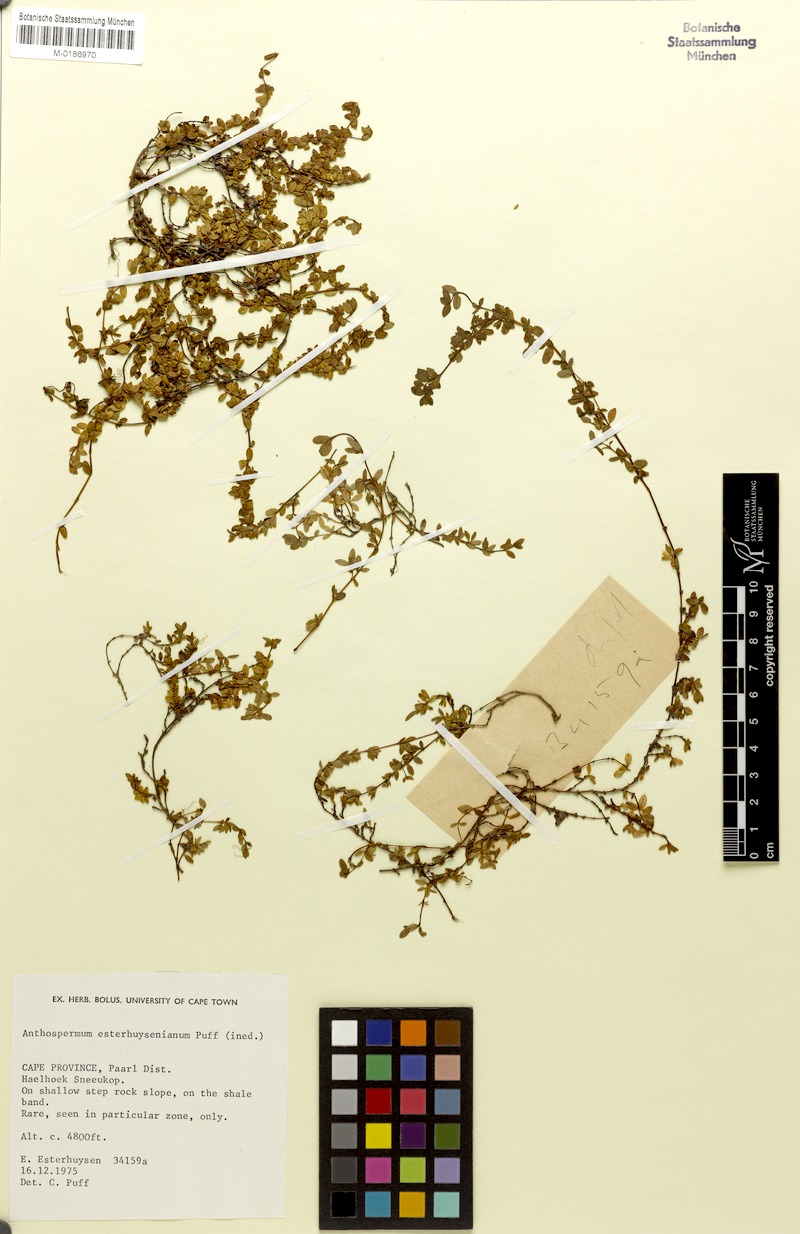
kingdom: Plantae
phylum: Tracheophyta
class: Magnoliopsida
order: Gentianales
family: Rubiaceae
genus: Anthospermum
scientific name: Anthospermum esterhuysenianum
